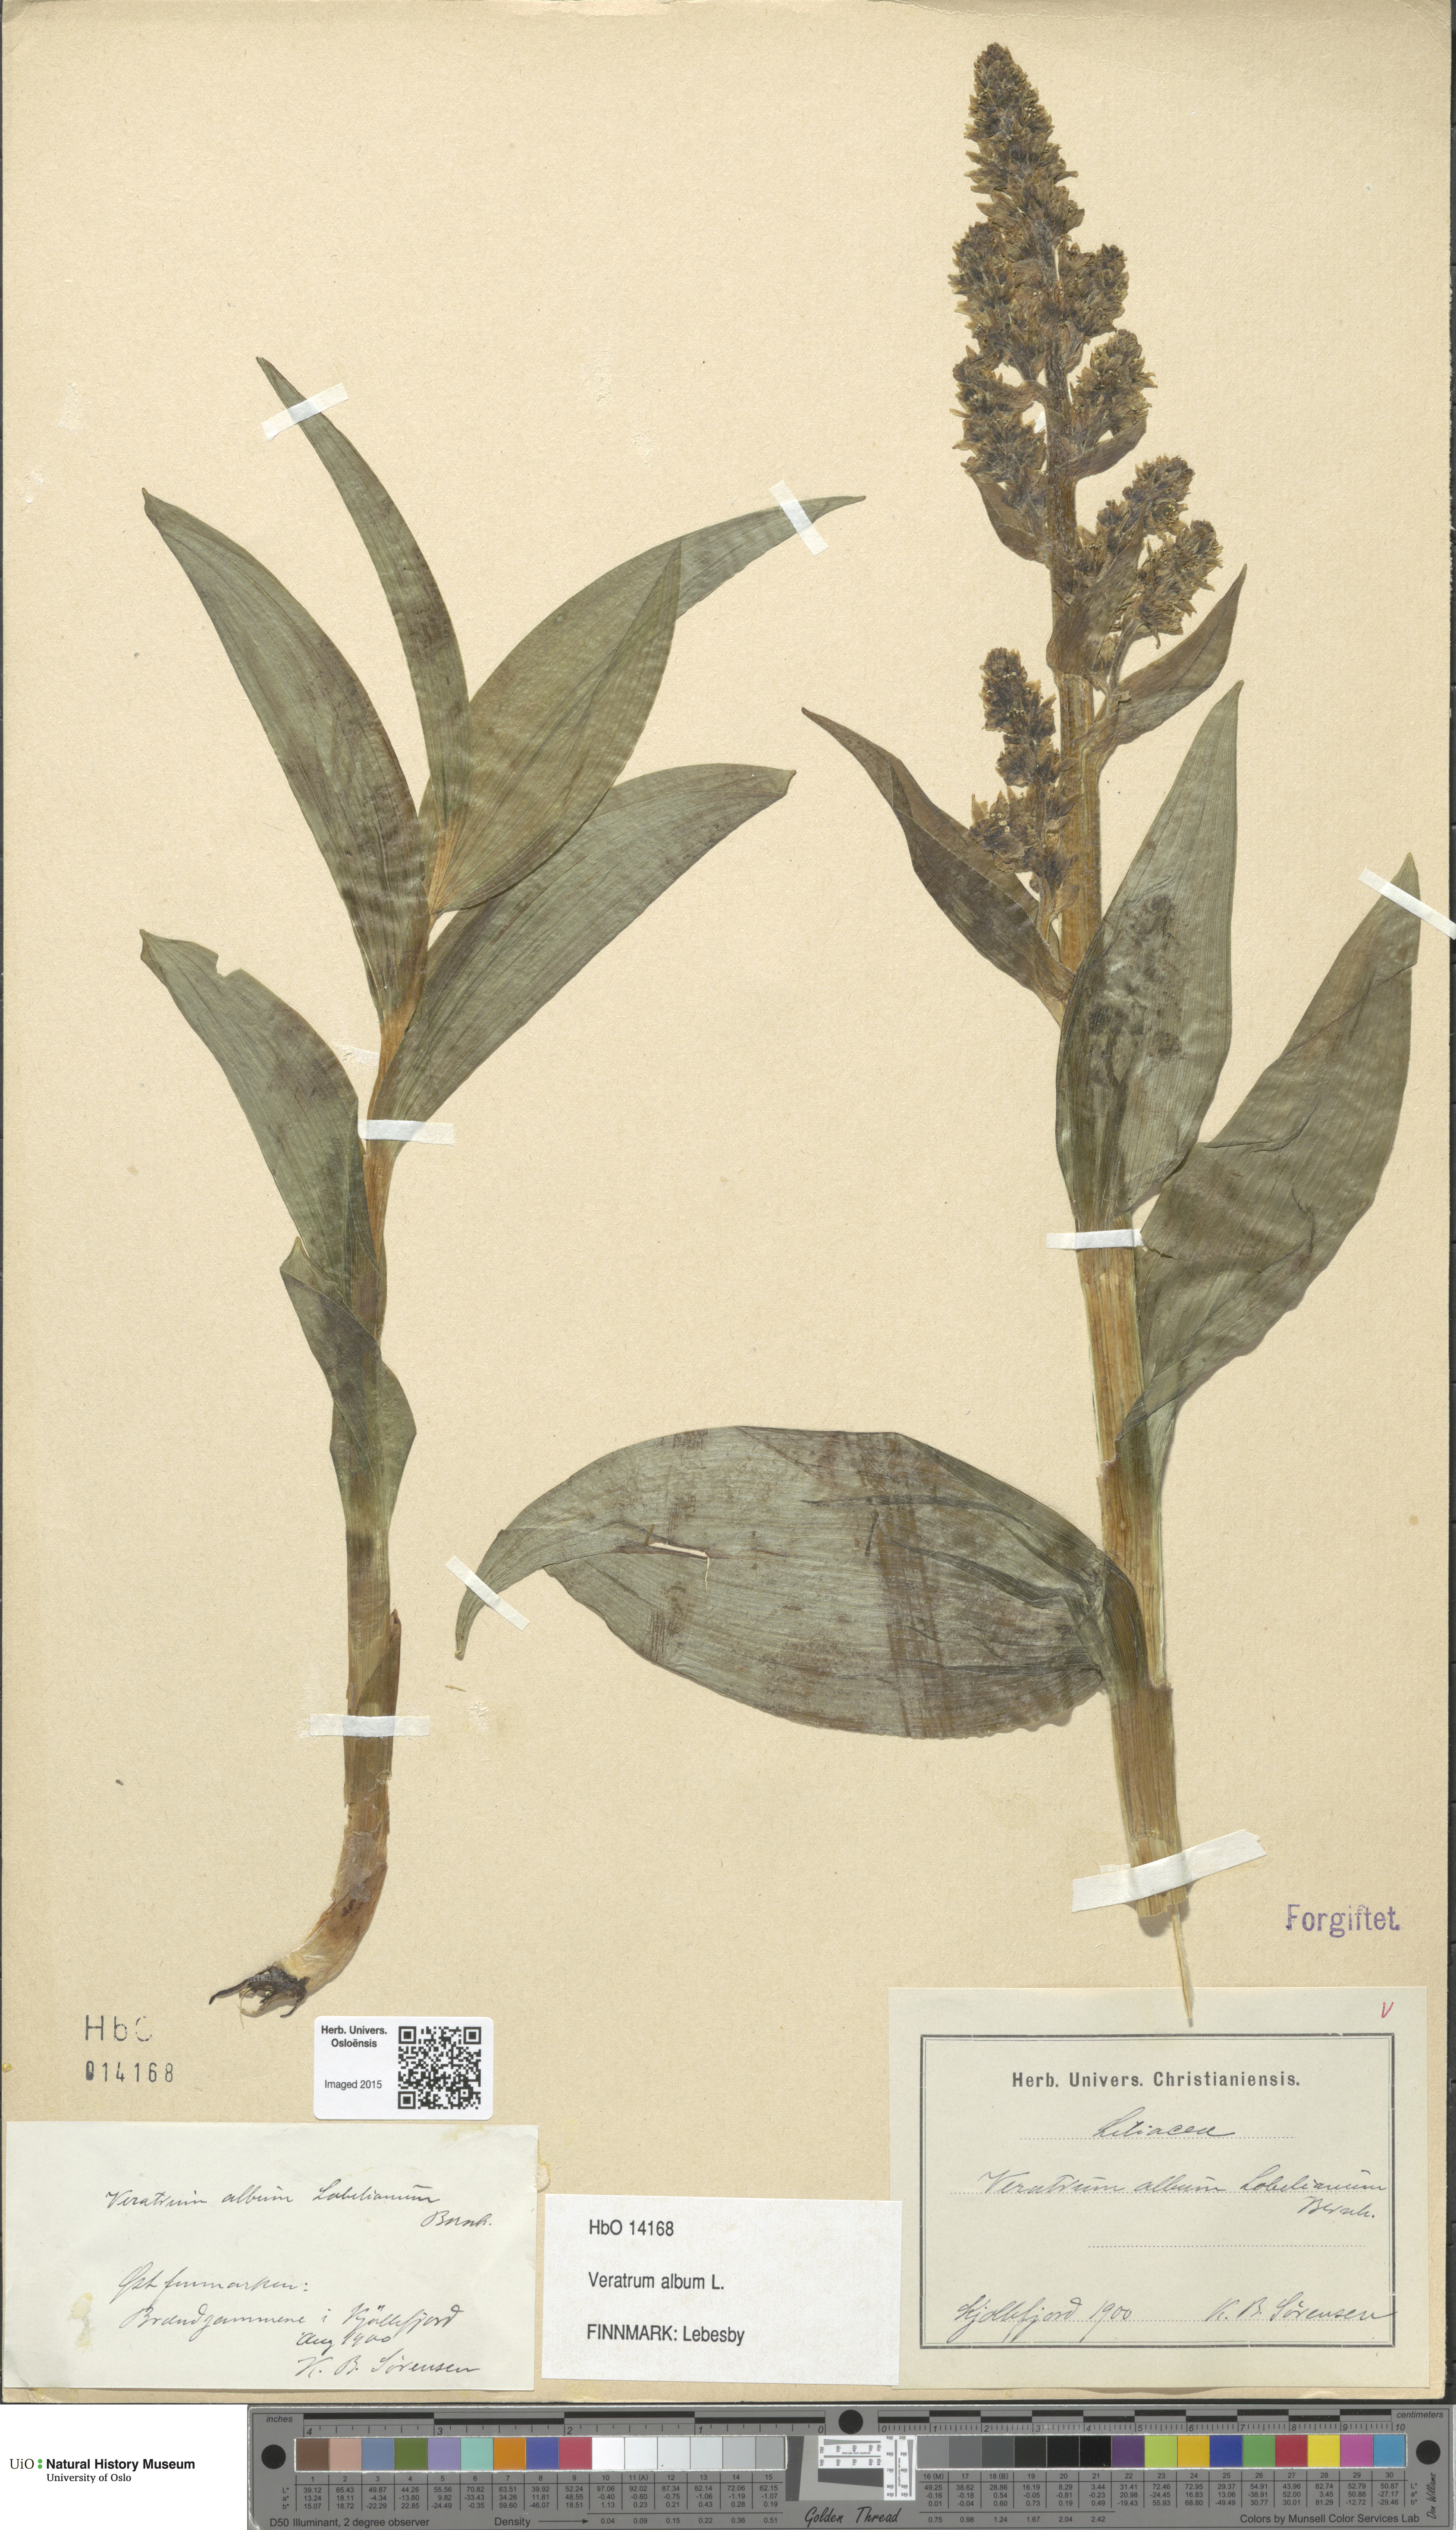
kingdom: Plantae
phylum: Tracheophyta
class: Liliopsida
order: Liliales
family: Melanthiaceae
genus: Veratrum
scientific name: Veratrum album
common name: White veratrum
